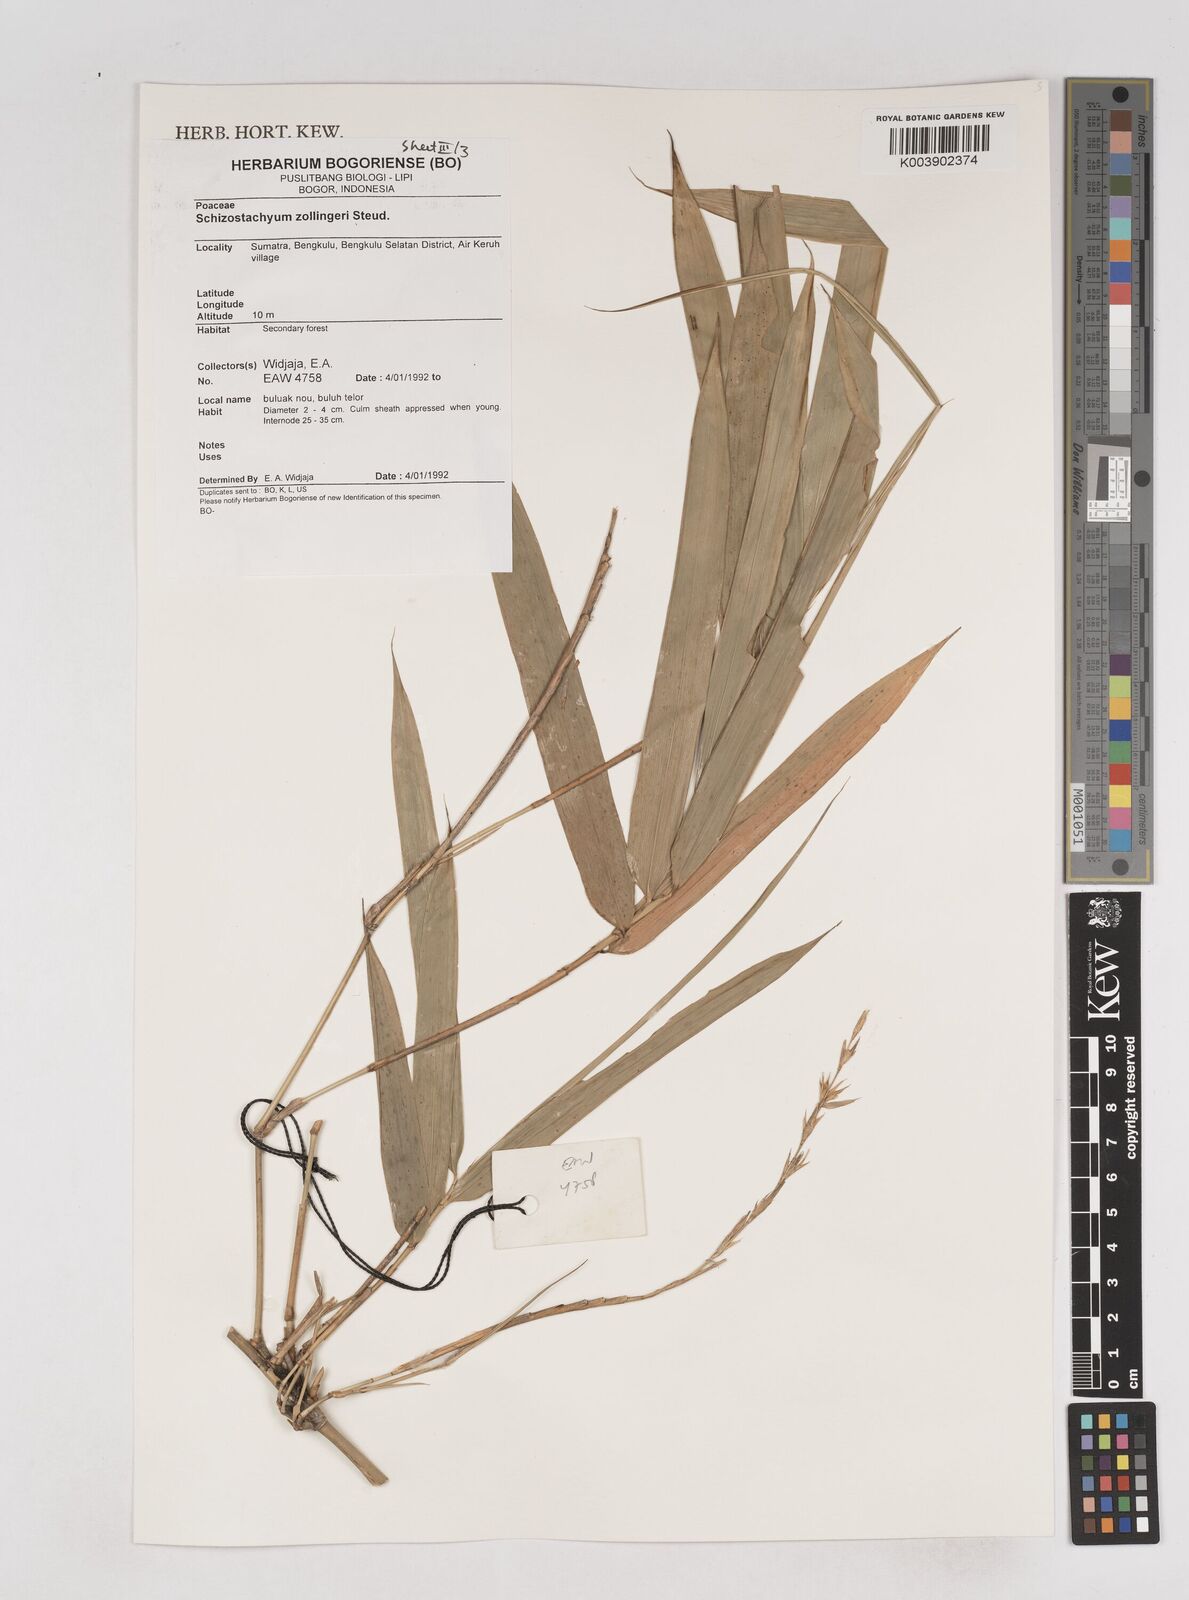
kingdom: Plantae
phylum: Tracheophyta
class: Liliopsida
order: Poales
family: Poaceae
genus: Schizostachyum
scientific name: Schizostachyum zollingeri
